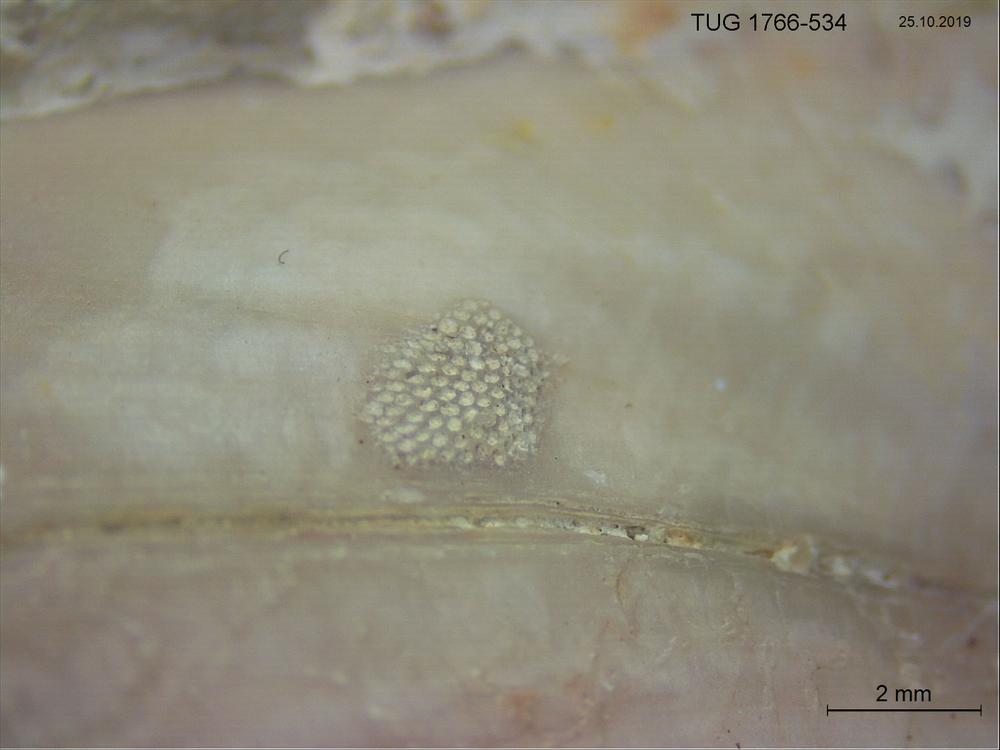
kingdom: Animalia
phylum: Bryozoa
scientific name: Bryozoa
